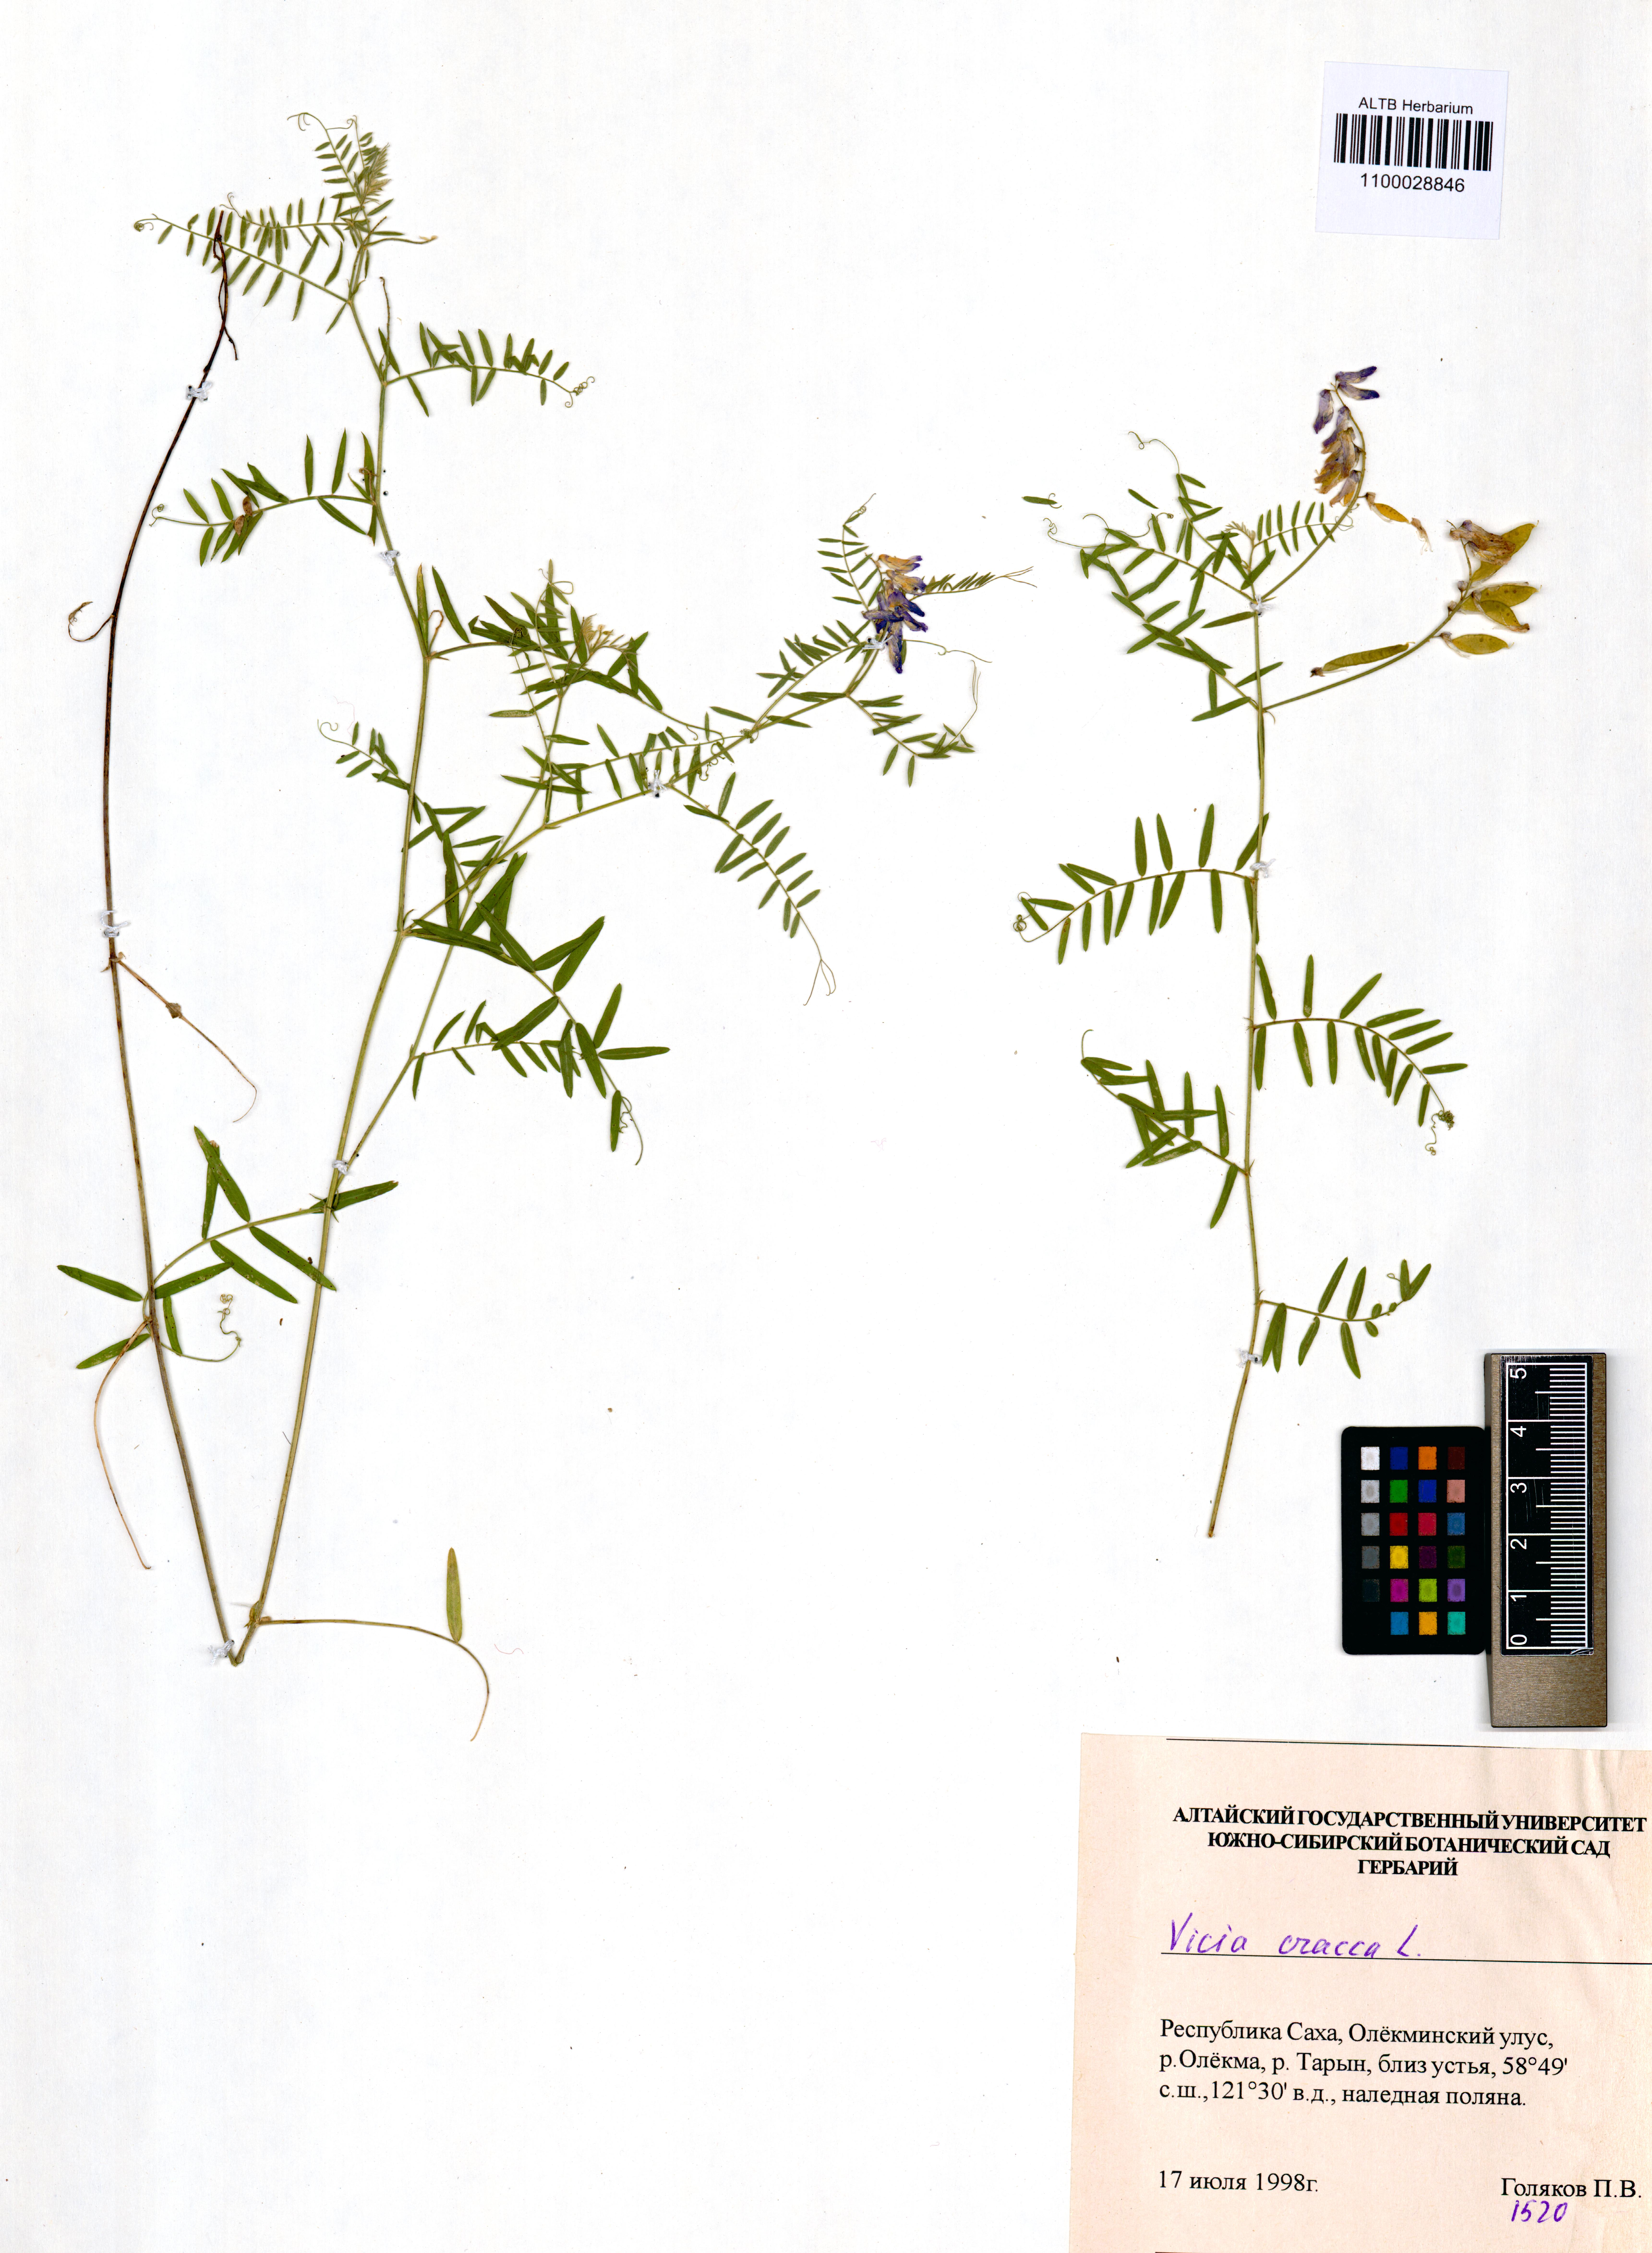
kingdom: Plantae
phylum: Tracheophyta
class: Magnoliopsida
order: Fabales
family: Fabaceae
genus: Vicia
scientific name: Vicia cracca
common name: Bird vetch
